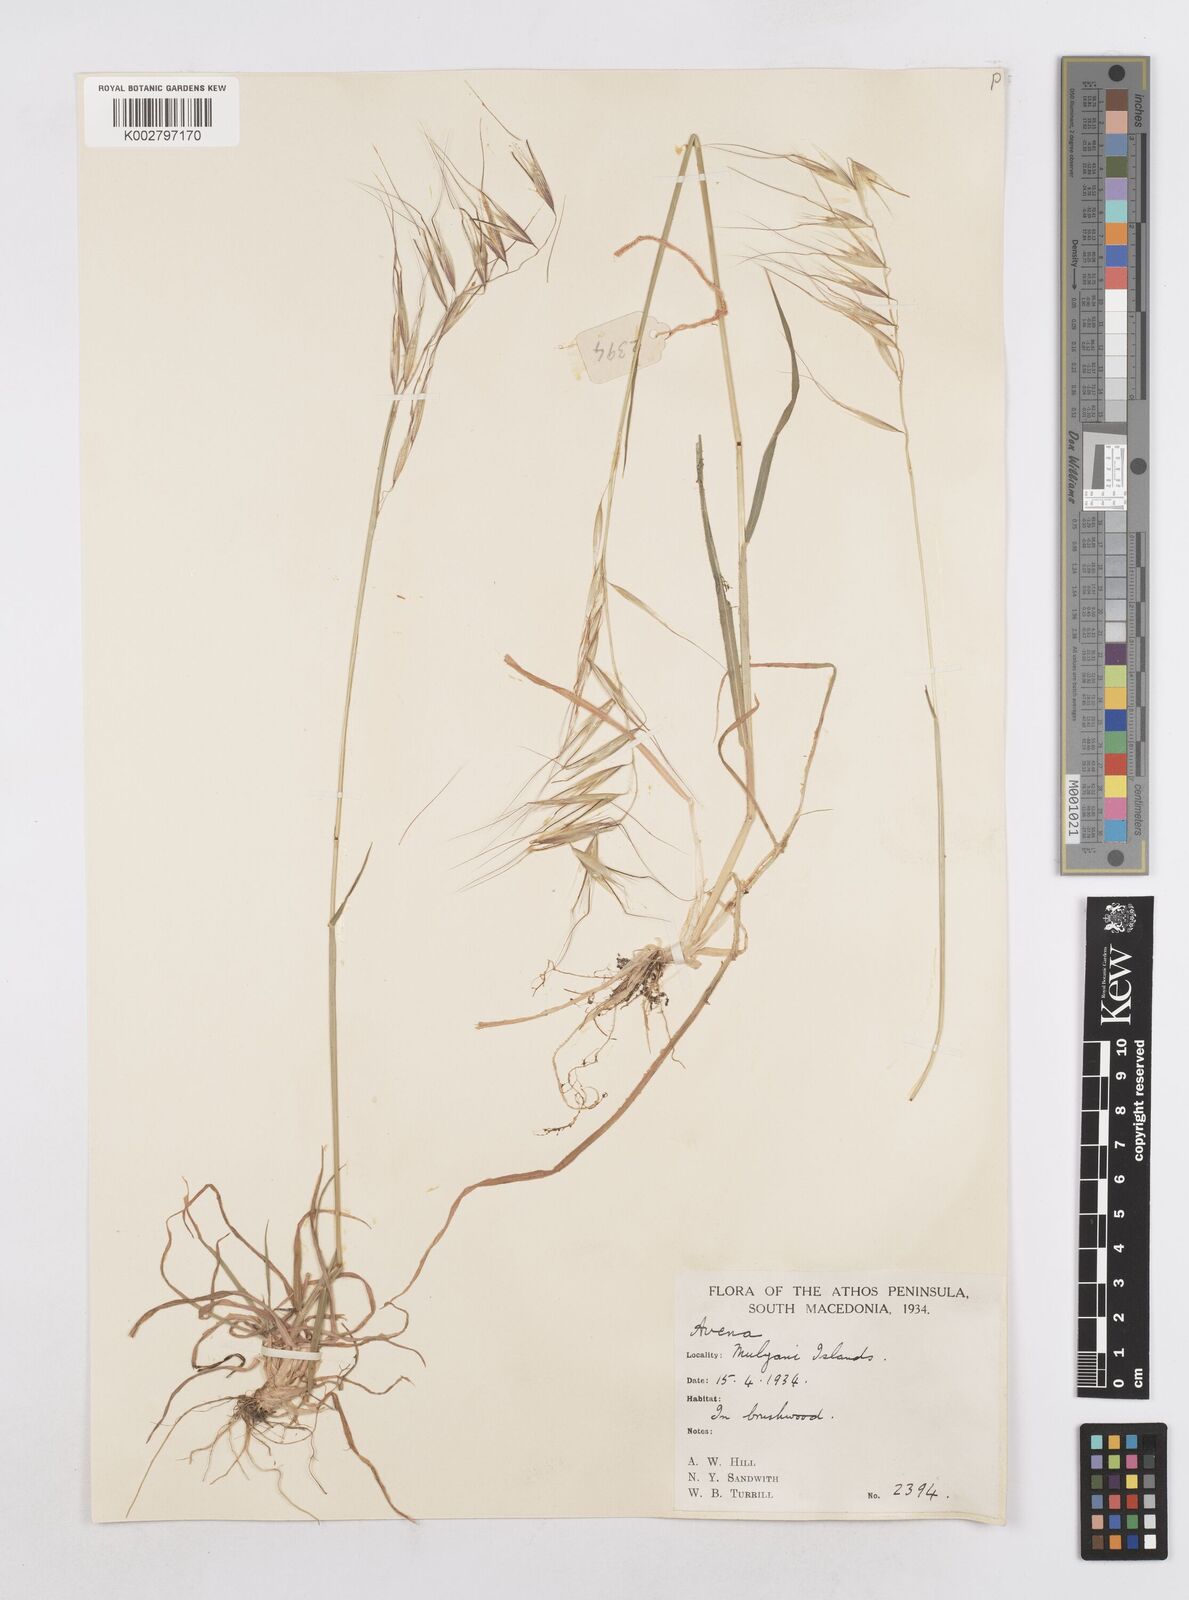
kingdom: Plantae
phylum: Tracheophyta
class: Liliopsida
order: Poales
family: Poaceae
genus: Avena
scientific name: Avena
